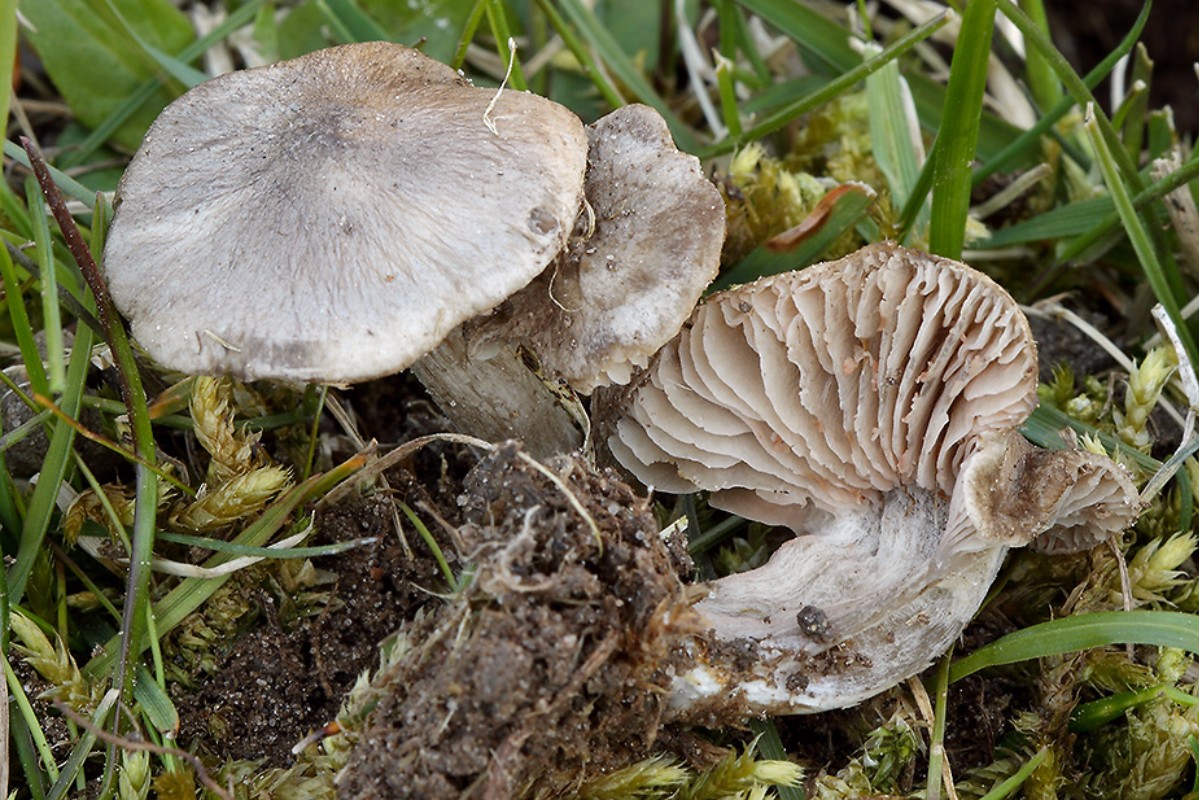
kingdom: Fungi
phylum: Basidiomycota
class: Agaricomycetes
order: Agaricales
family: Entolomataceae
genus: Entoloma
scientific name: Entoloma opacum
